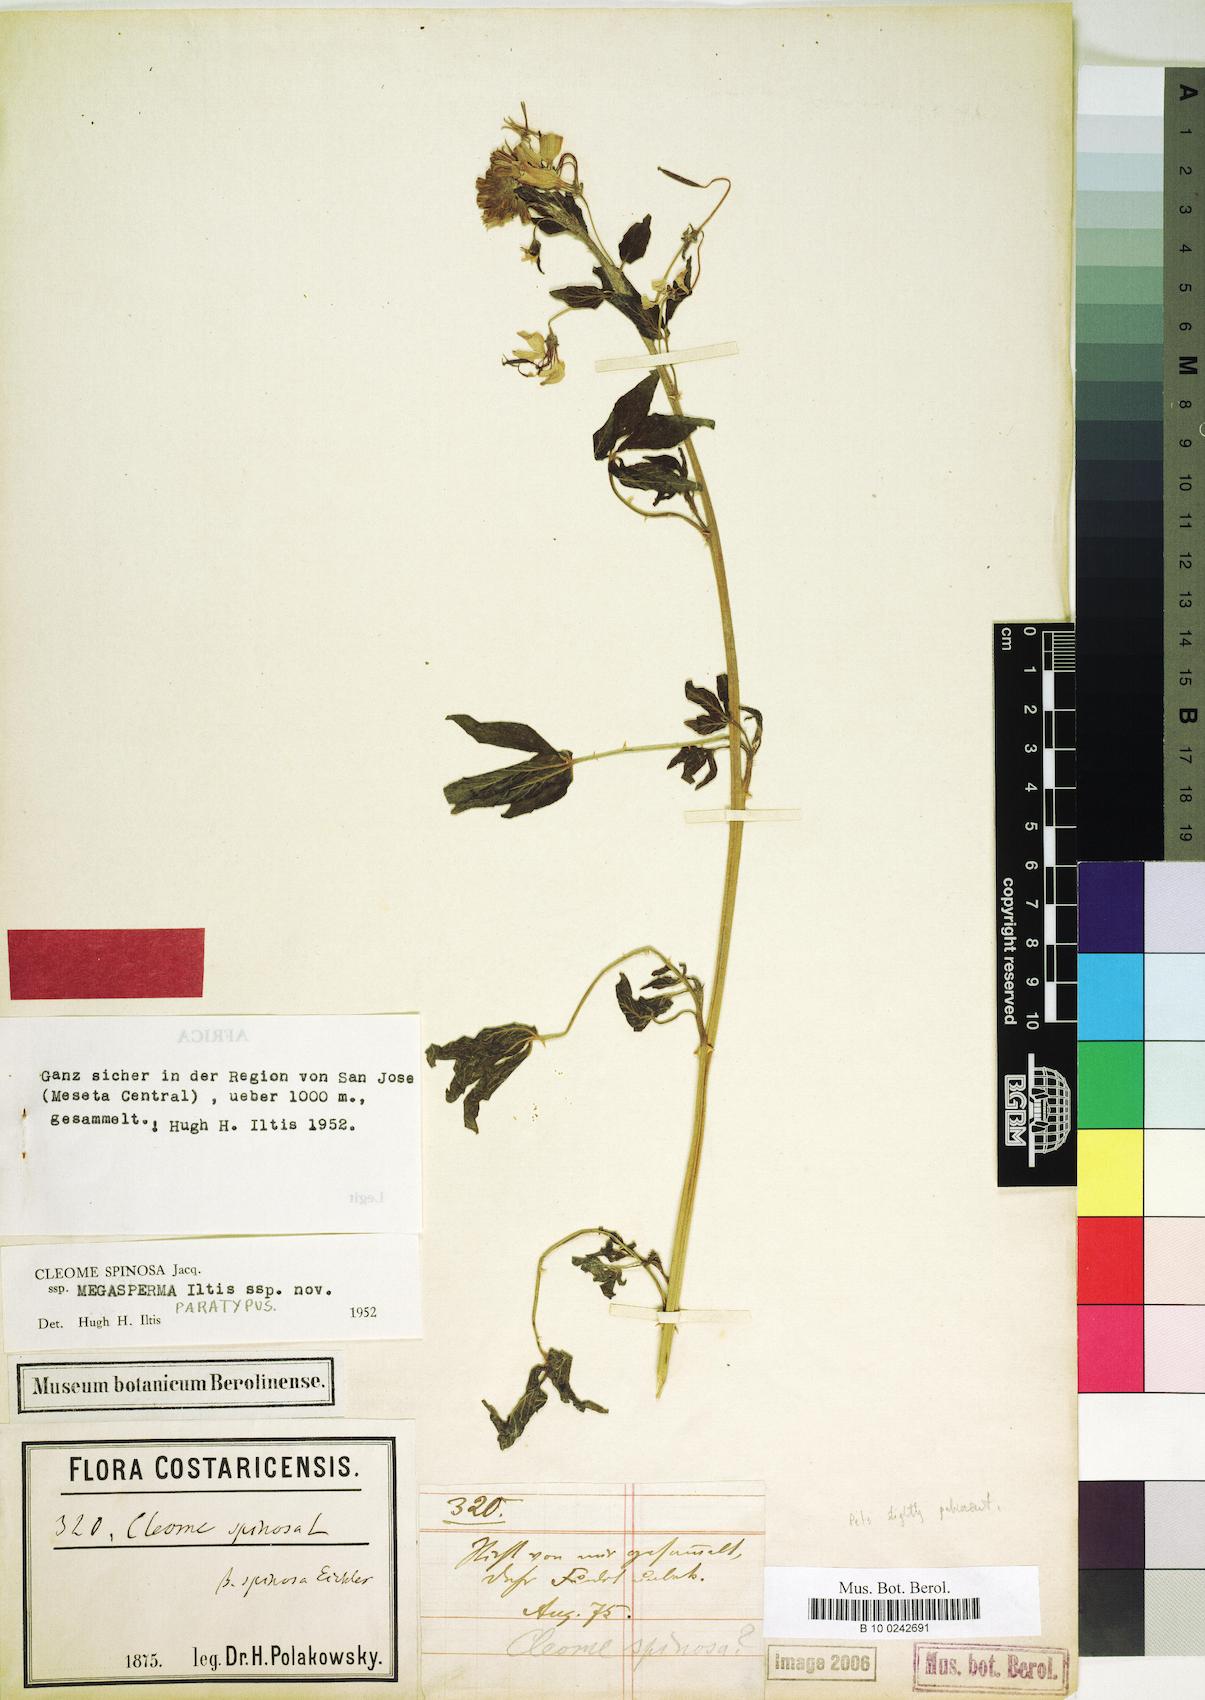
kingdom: Plantae
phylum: Tracheophyta
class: Magnoliopsida
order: Brassicales
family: Cleomaceae
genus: Tarenaya
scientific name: Tarenaya
